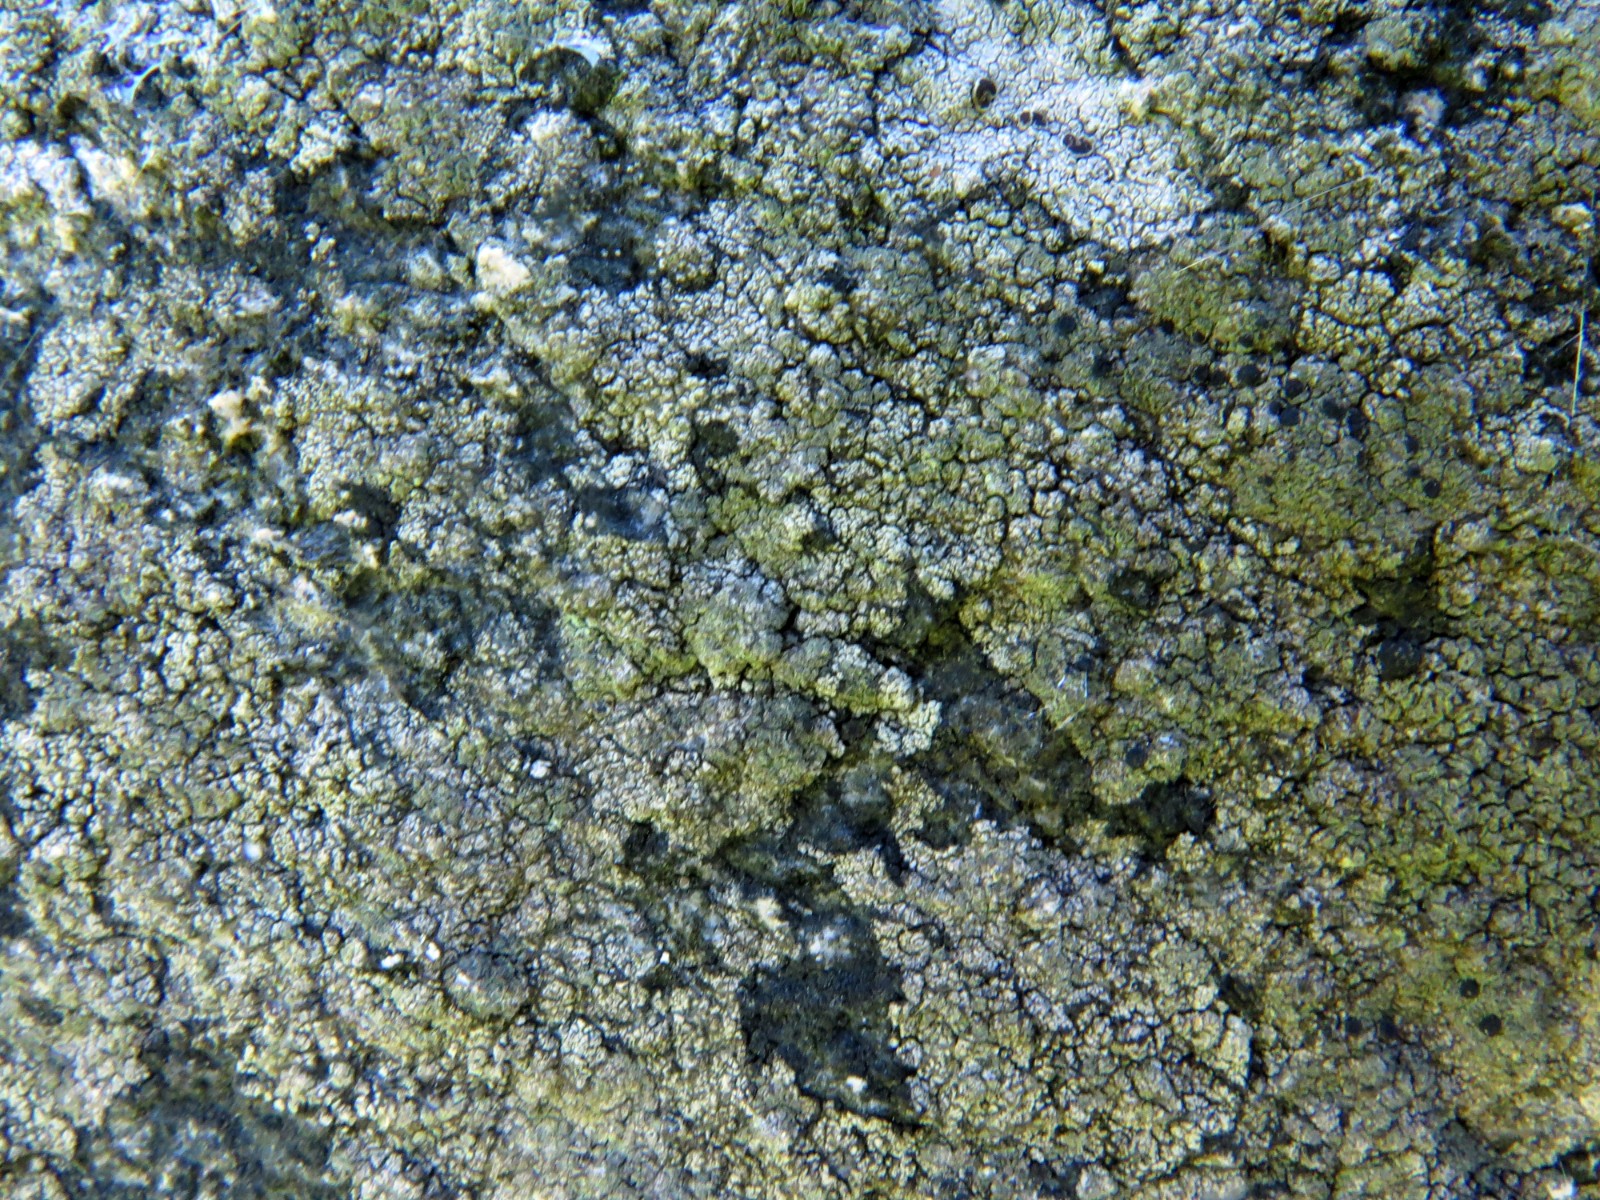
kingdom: Fungi
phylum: Ascomycota
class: Lecanoromycetes
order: Lecanorales
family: Lecanoraceae
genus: Lecidella
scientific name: Lecidella scabra
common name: skurvet skivelav
